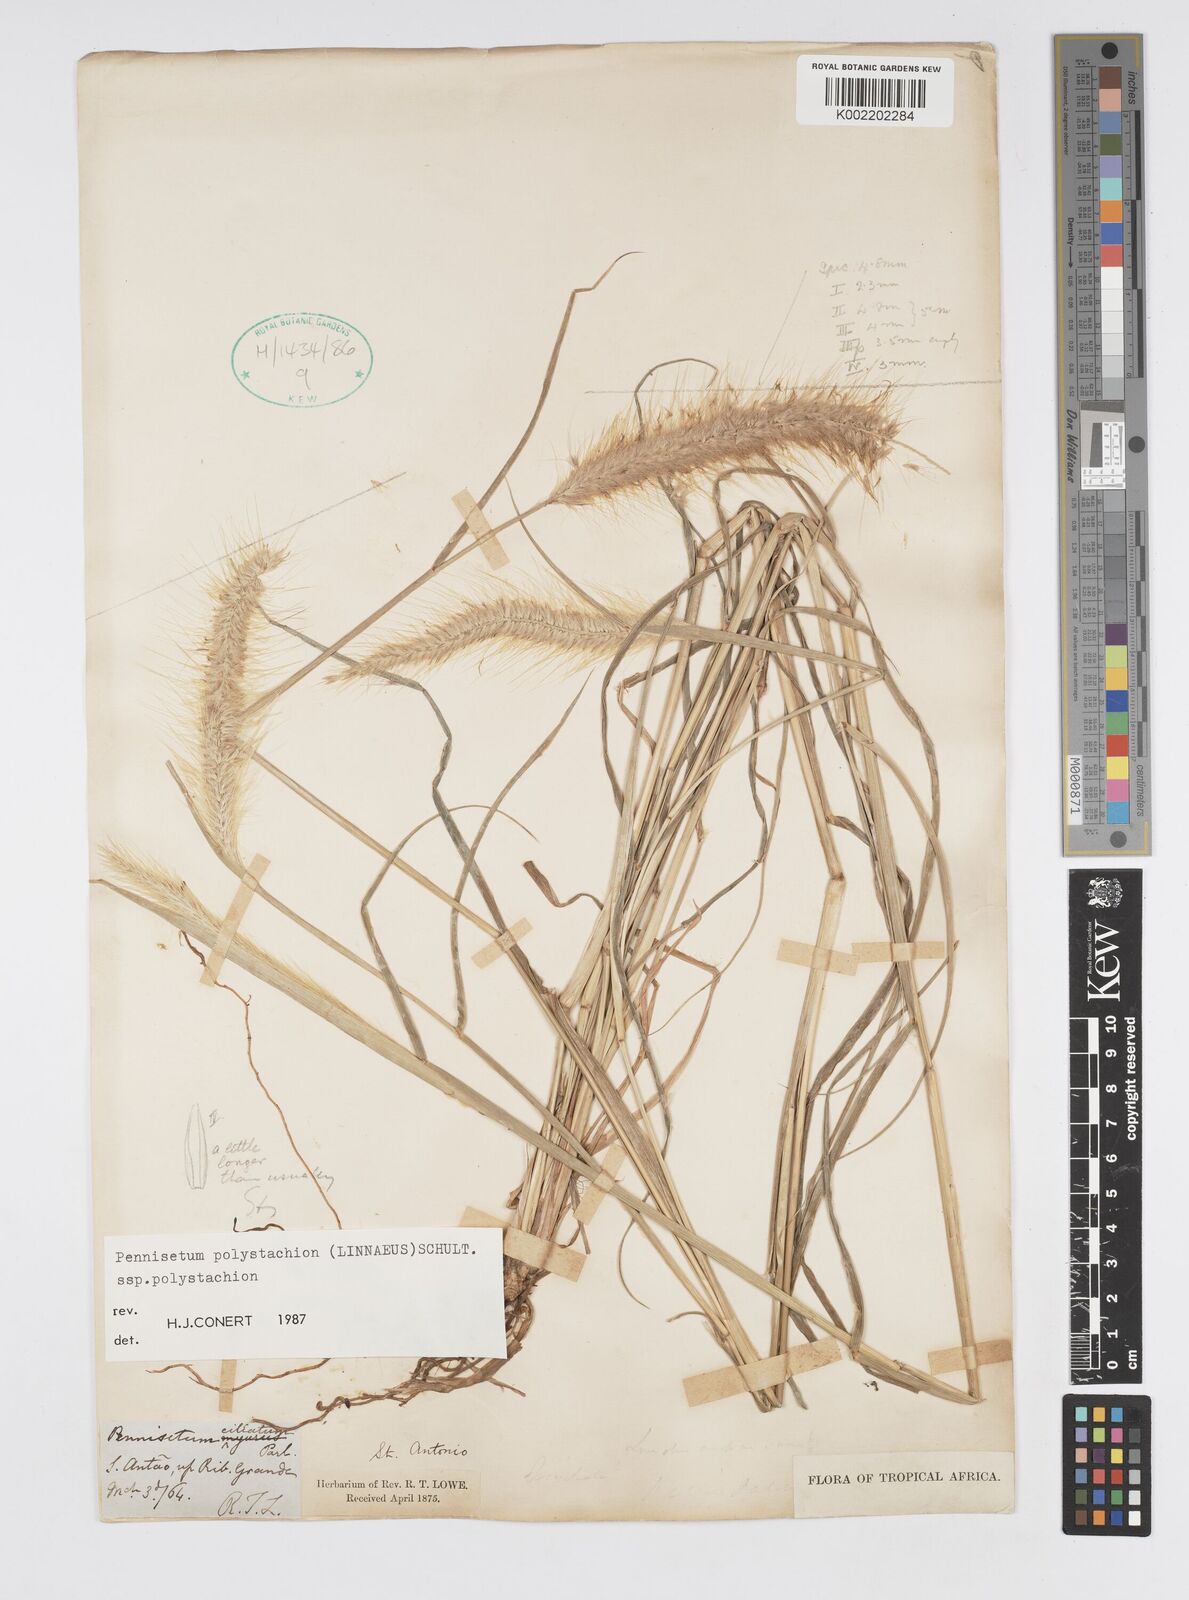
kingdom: Plantae
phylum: Tracheophyta
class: Liliopsida
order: Poales
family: Poaceae
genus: Setaria
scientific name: Setaria parviflora
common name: Knotroot bristle-grass
